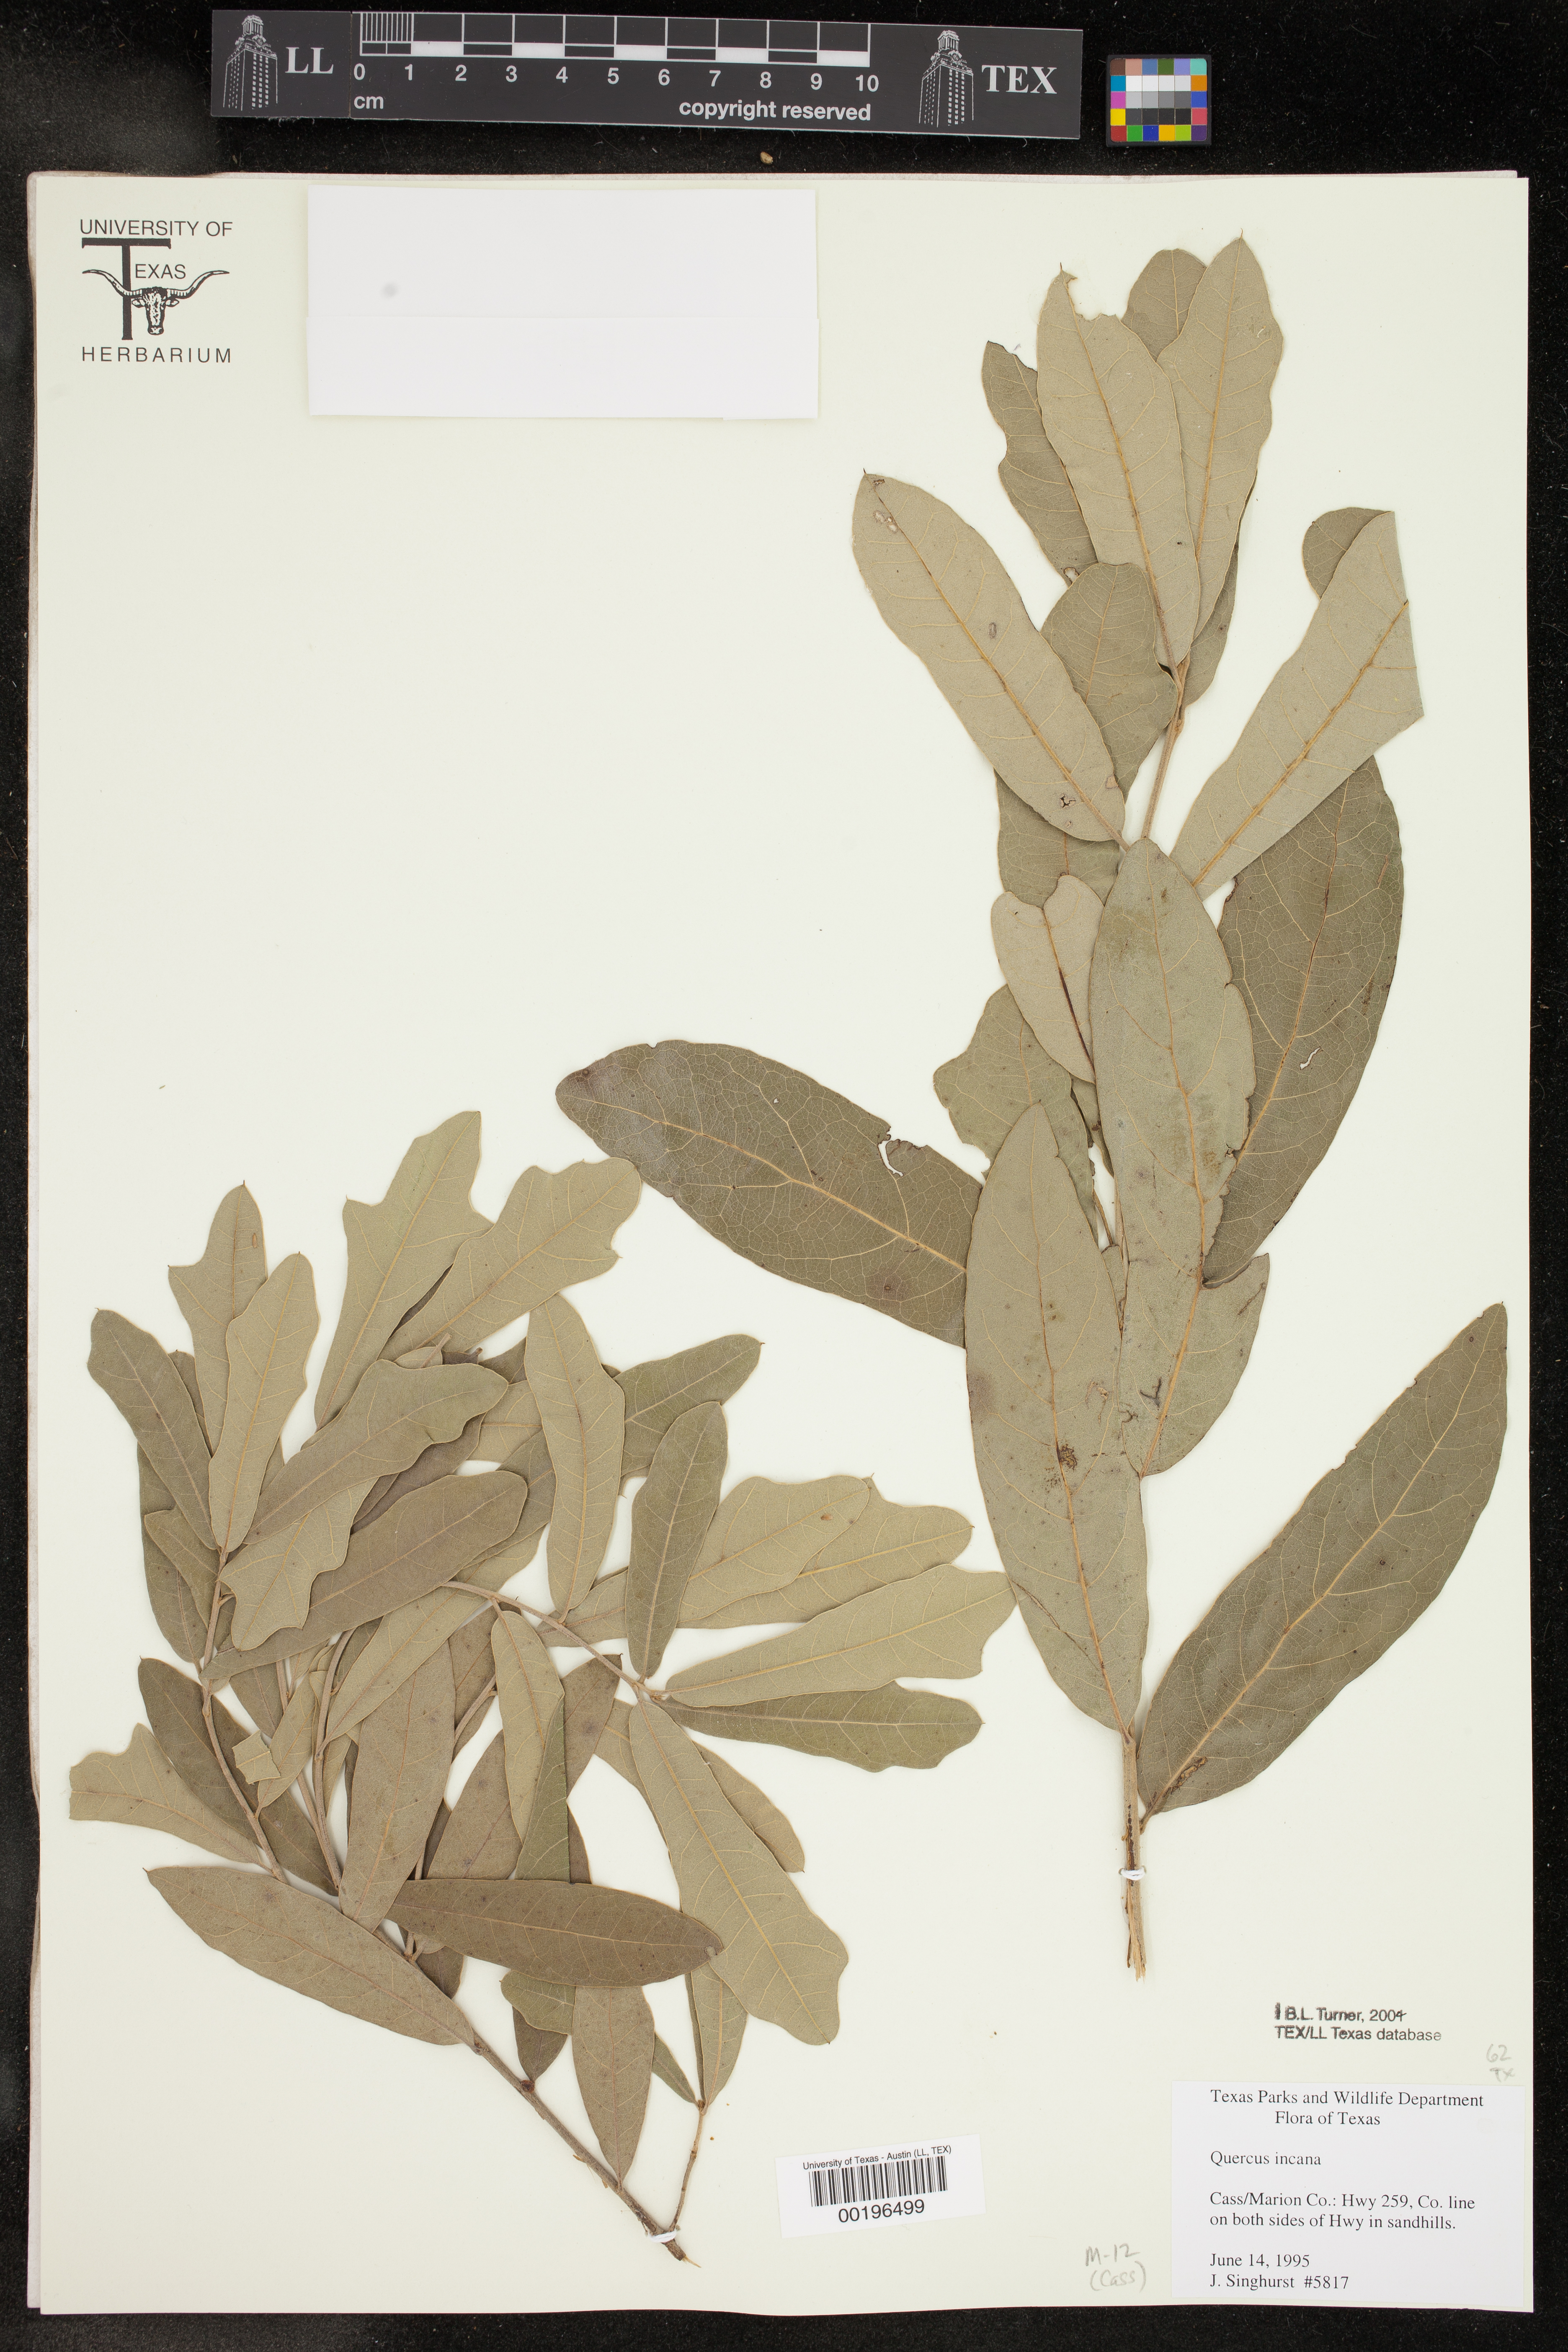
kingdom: Plantae
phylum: Tracheophyta
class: Magnoliopsida
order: Fagales
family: Fagaceae
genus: Quercus
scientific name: Quercus incana
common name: Bluejack oak
